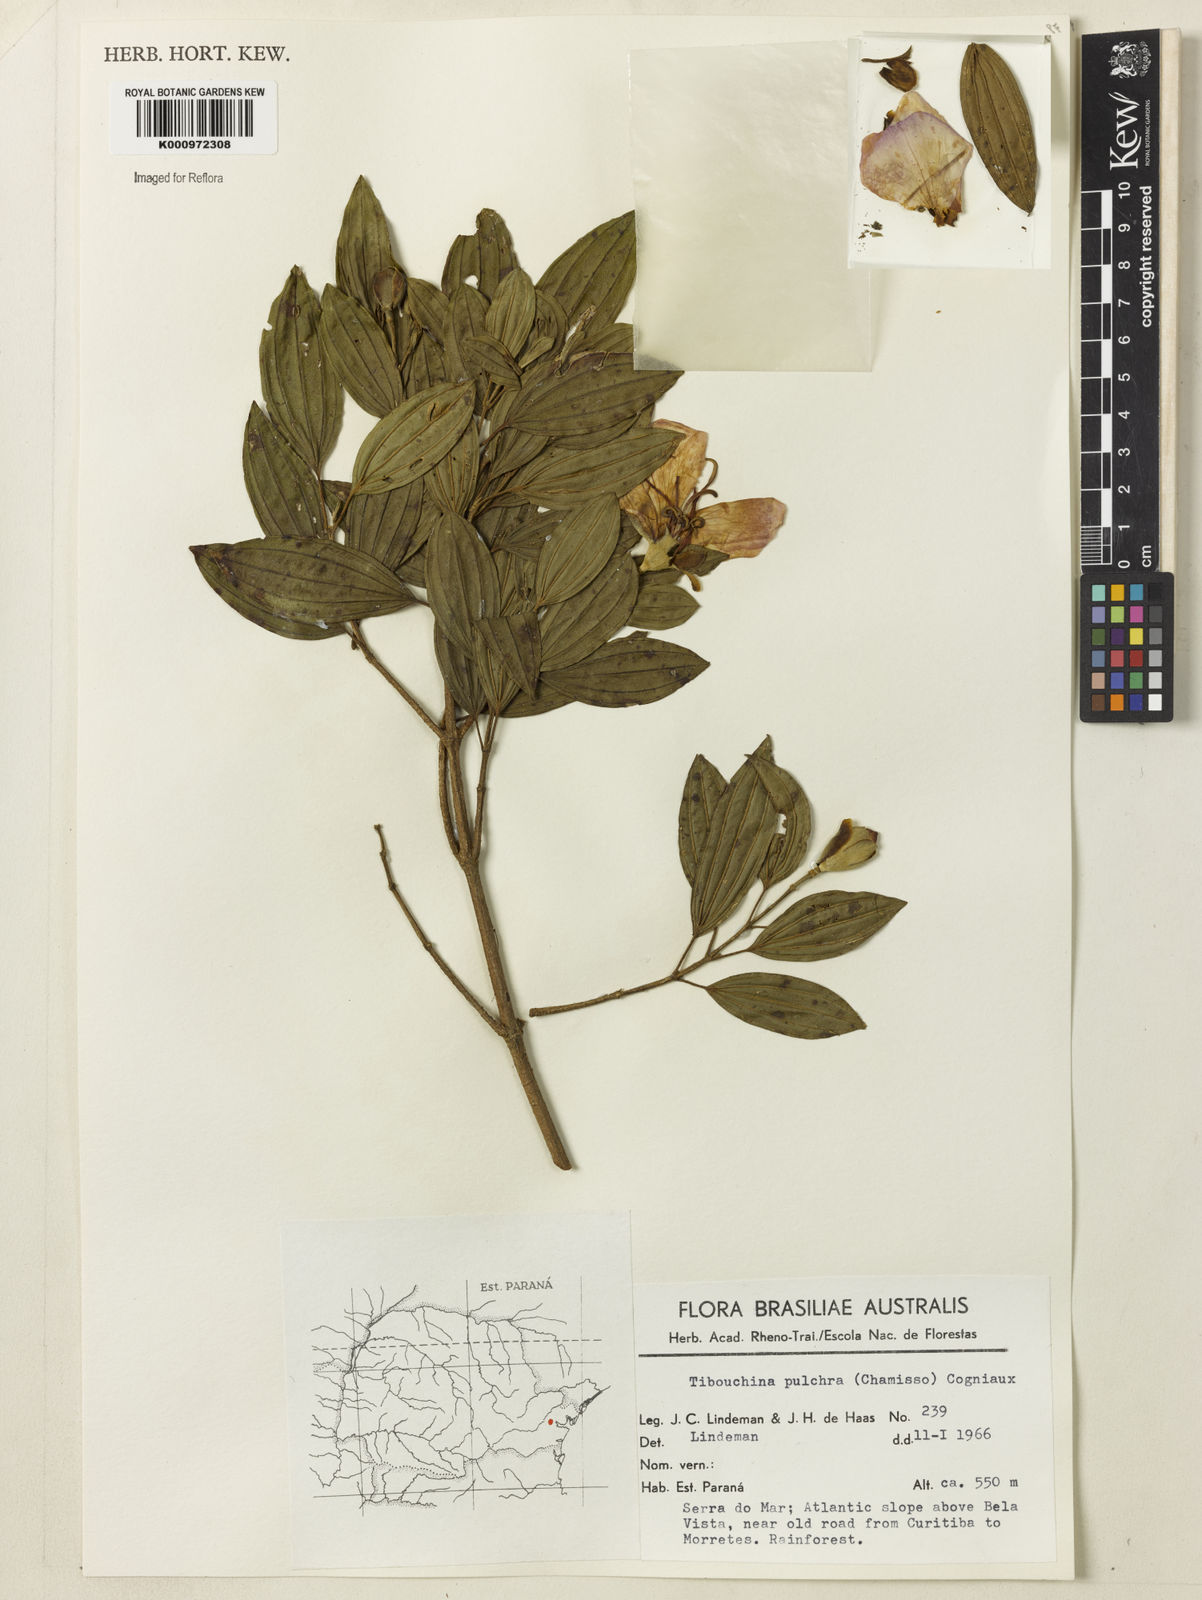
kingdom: Plantae
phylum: Tracheophyta
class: Magnoliopsida
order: Myrtales
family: Melastomataceae
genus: Pleroma
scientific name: Pleroma raddianum
